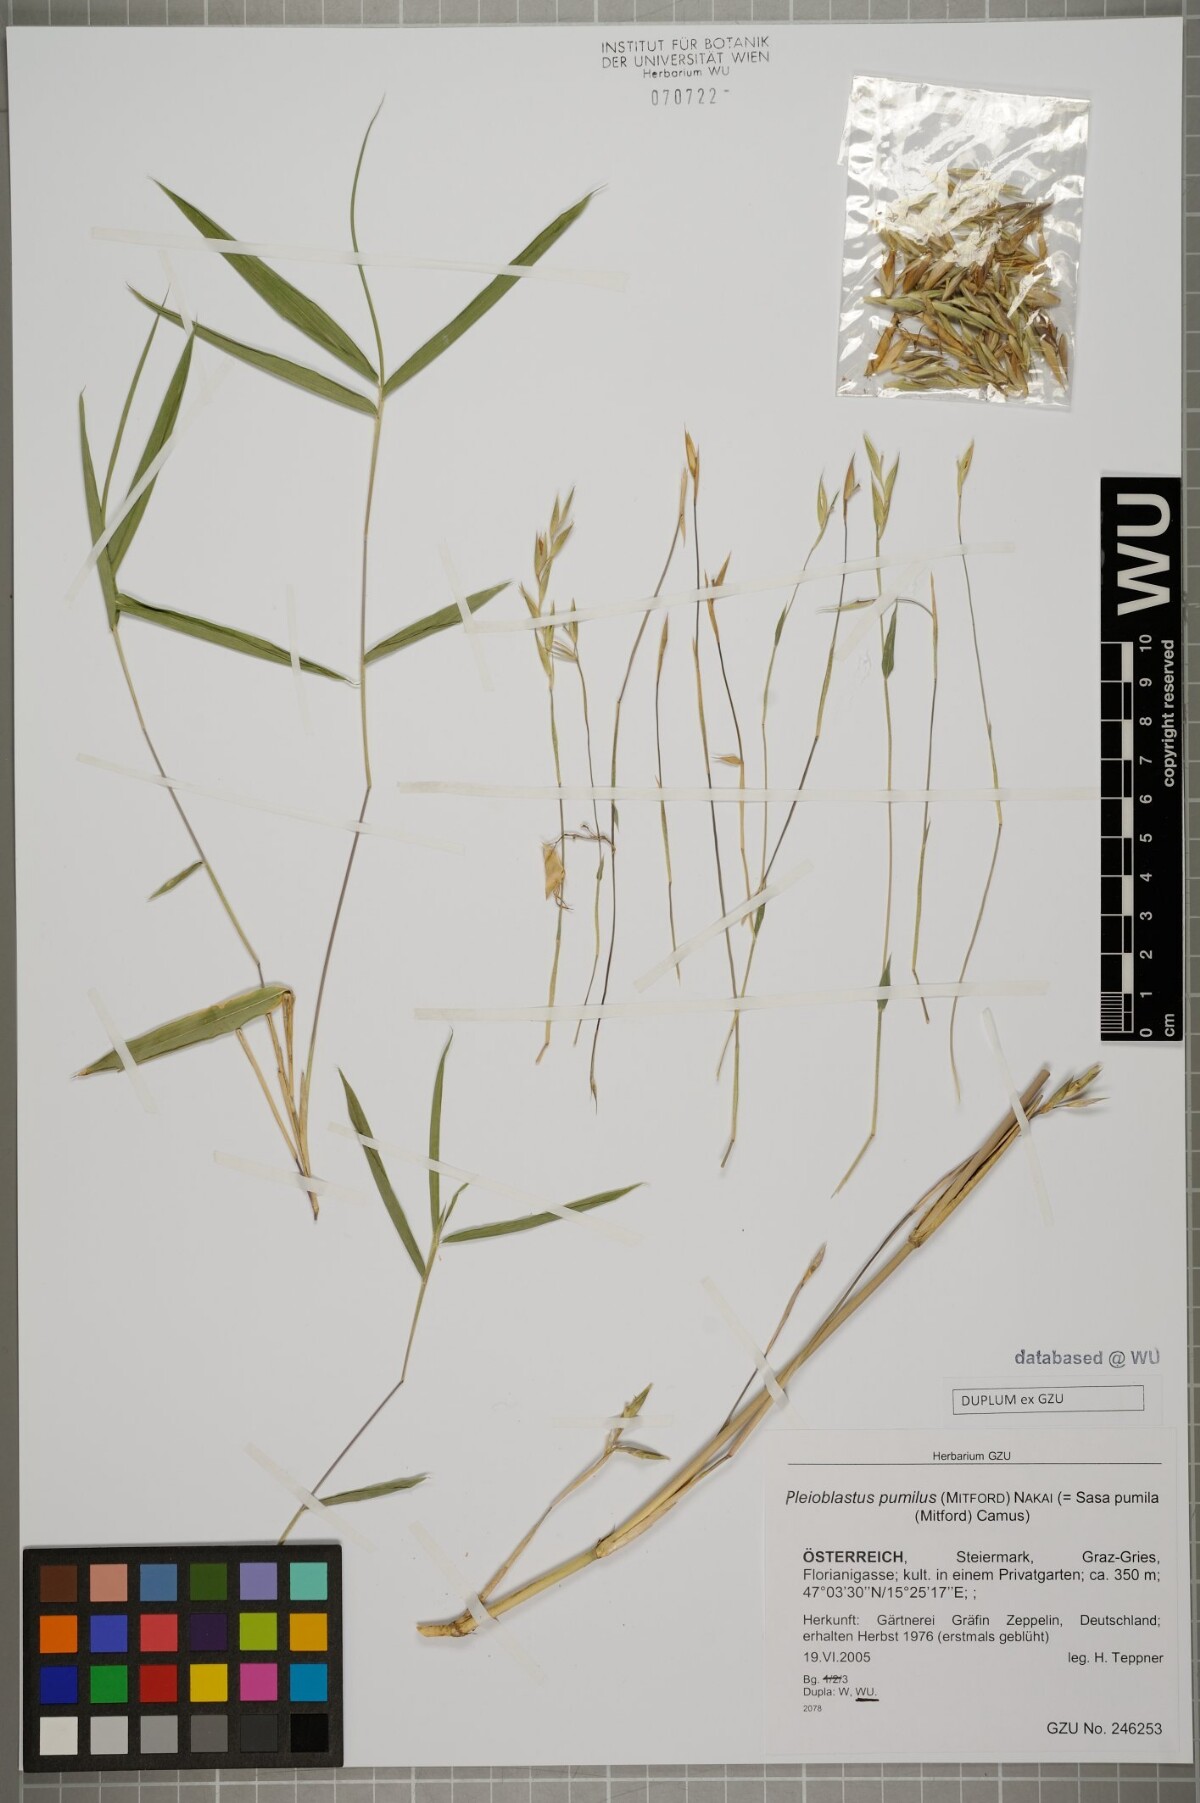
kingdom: Plantae
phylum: Tracheophyta
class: Liliopsida
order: Poales
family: Poaceae
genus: Pleioblastus
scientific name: Pleioblastus argenteostriatus
